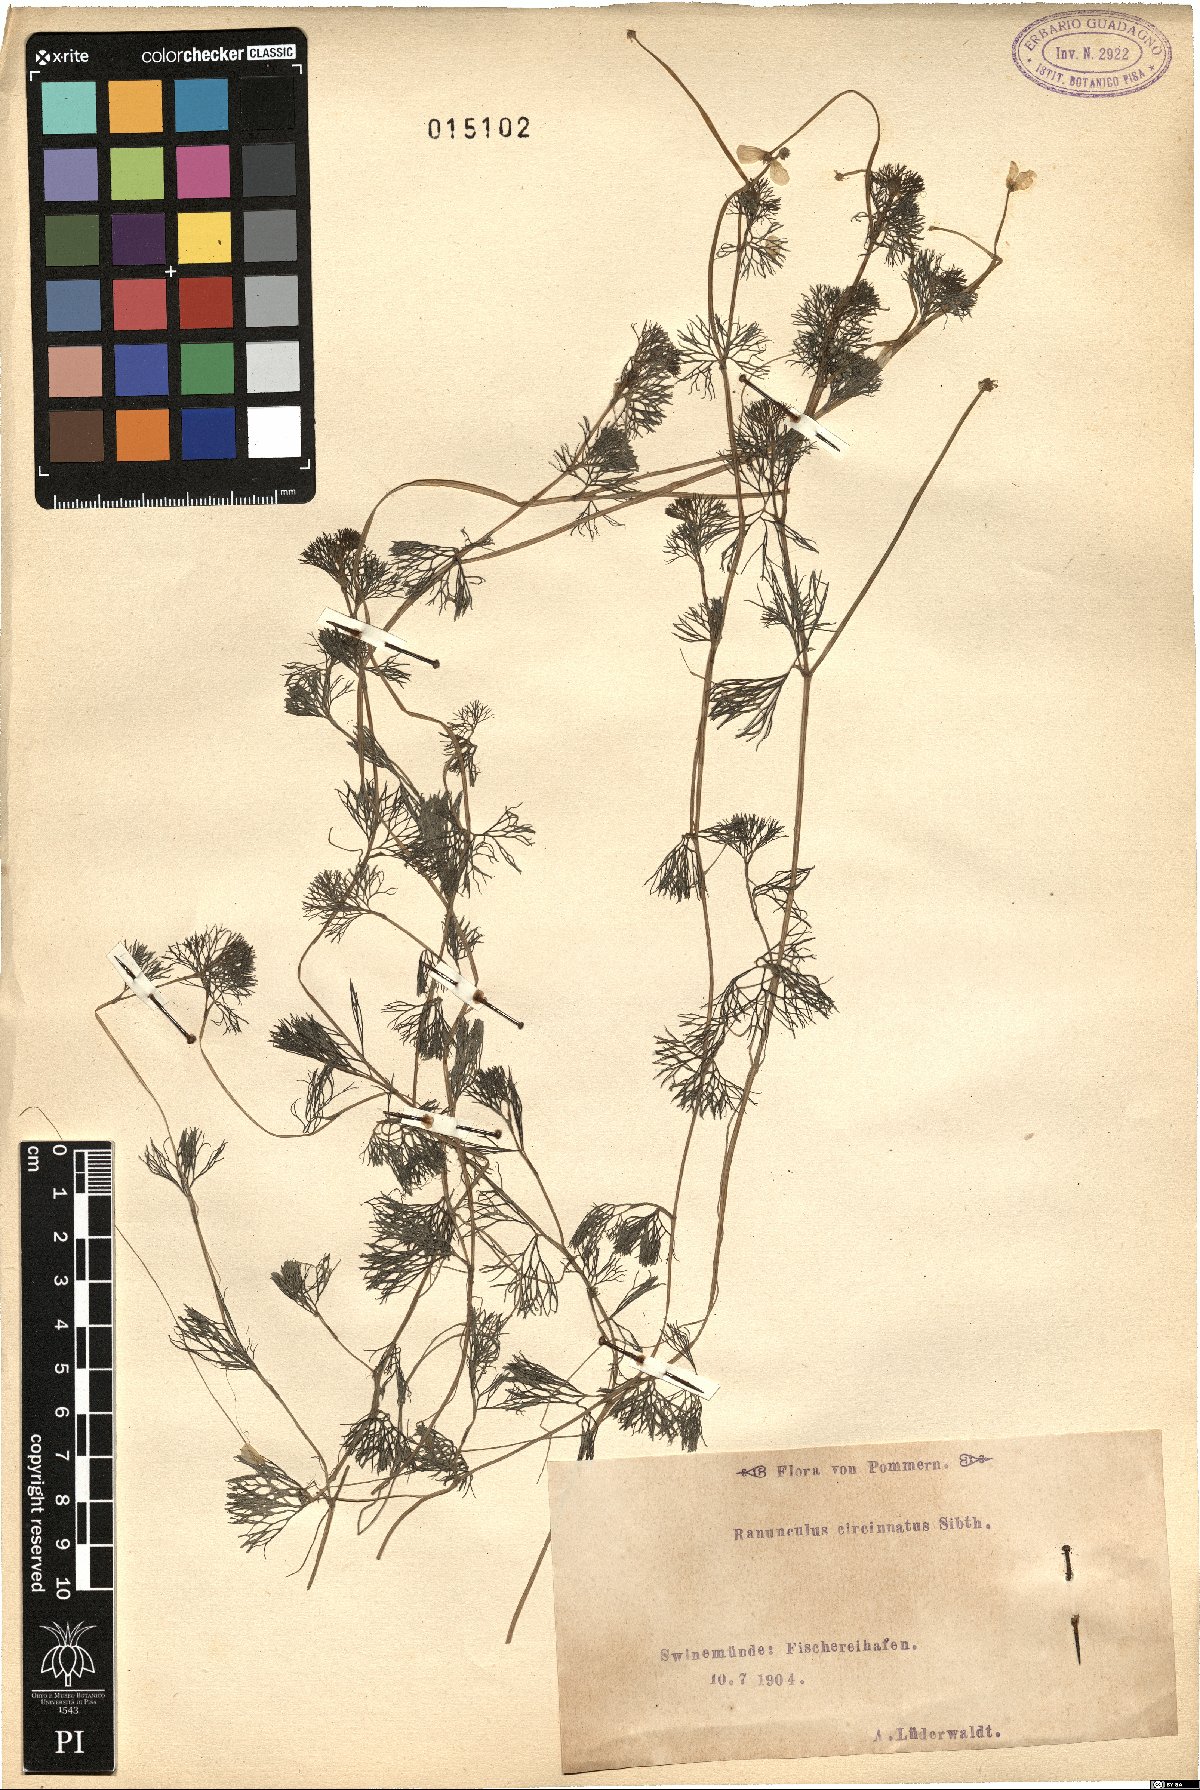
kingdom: Plantae
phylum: Tracheophyta
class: Magnoliopsida
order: Ranunculales
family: Ranunculaceae
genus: Ranunculus
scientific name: Ranunculus circinatus
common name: Fan-leaved water-crowfoot
